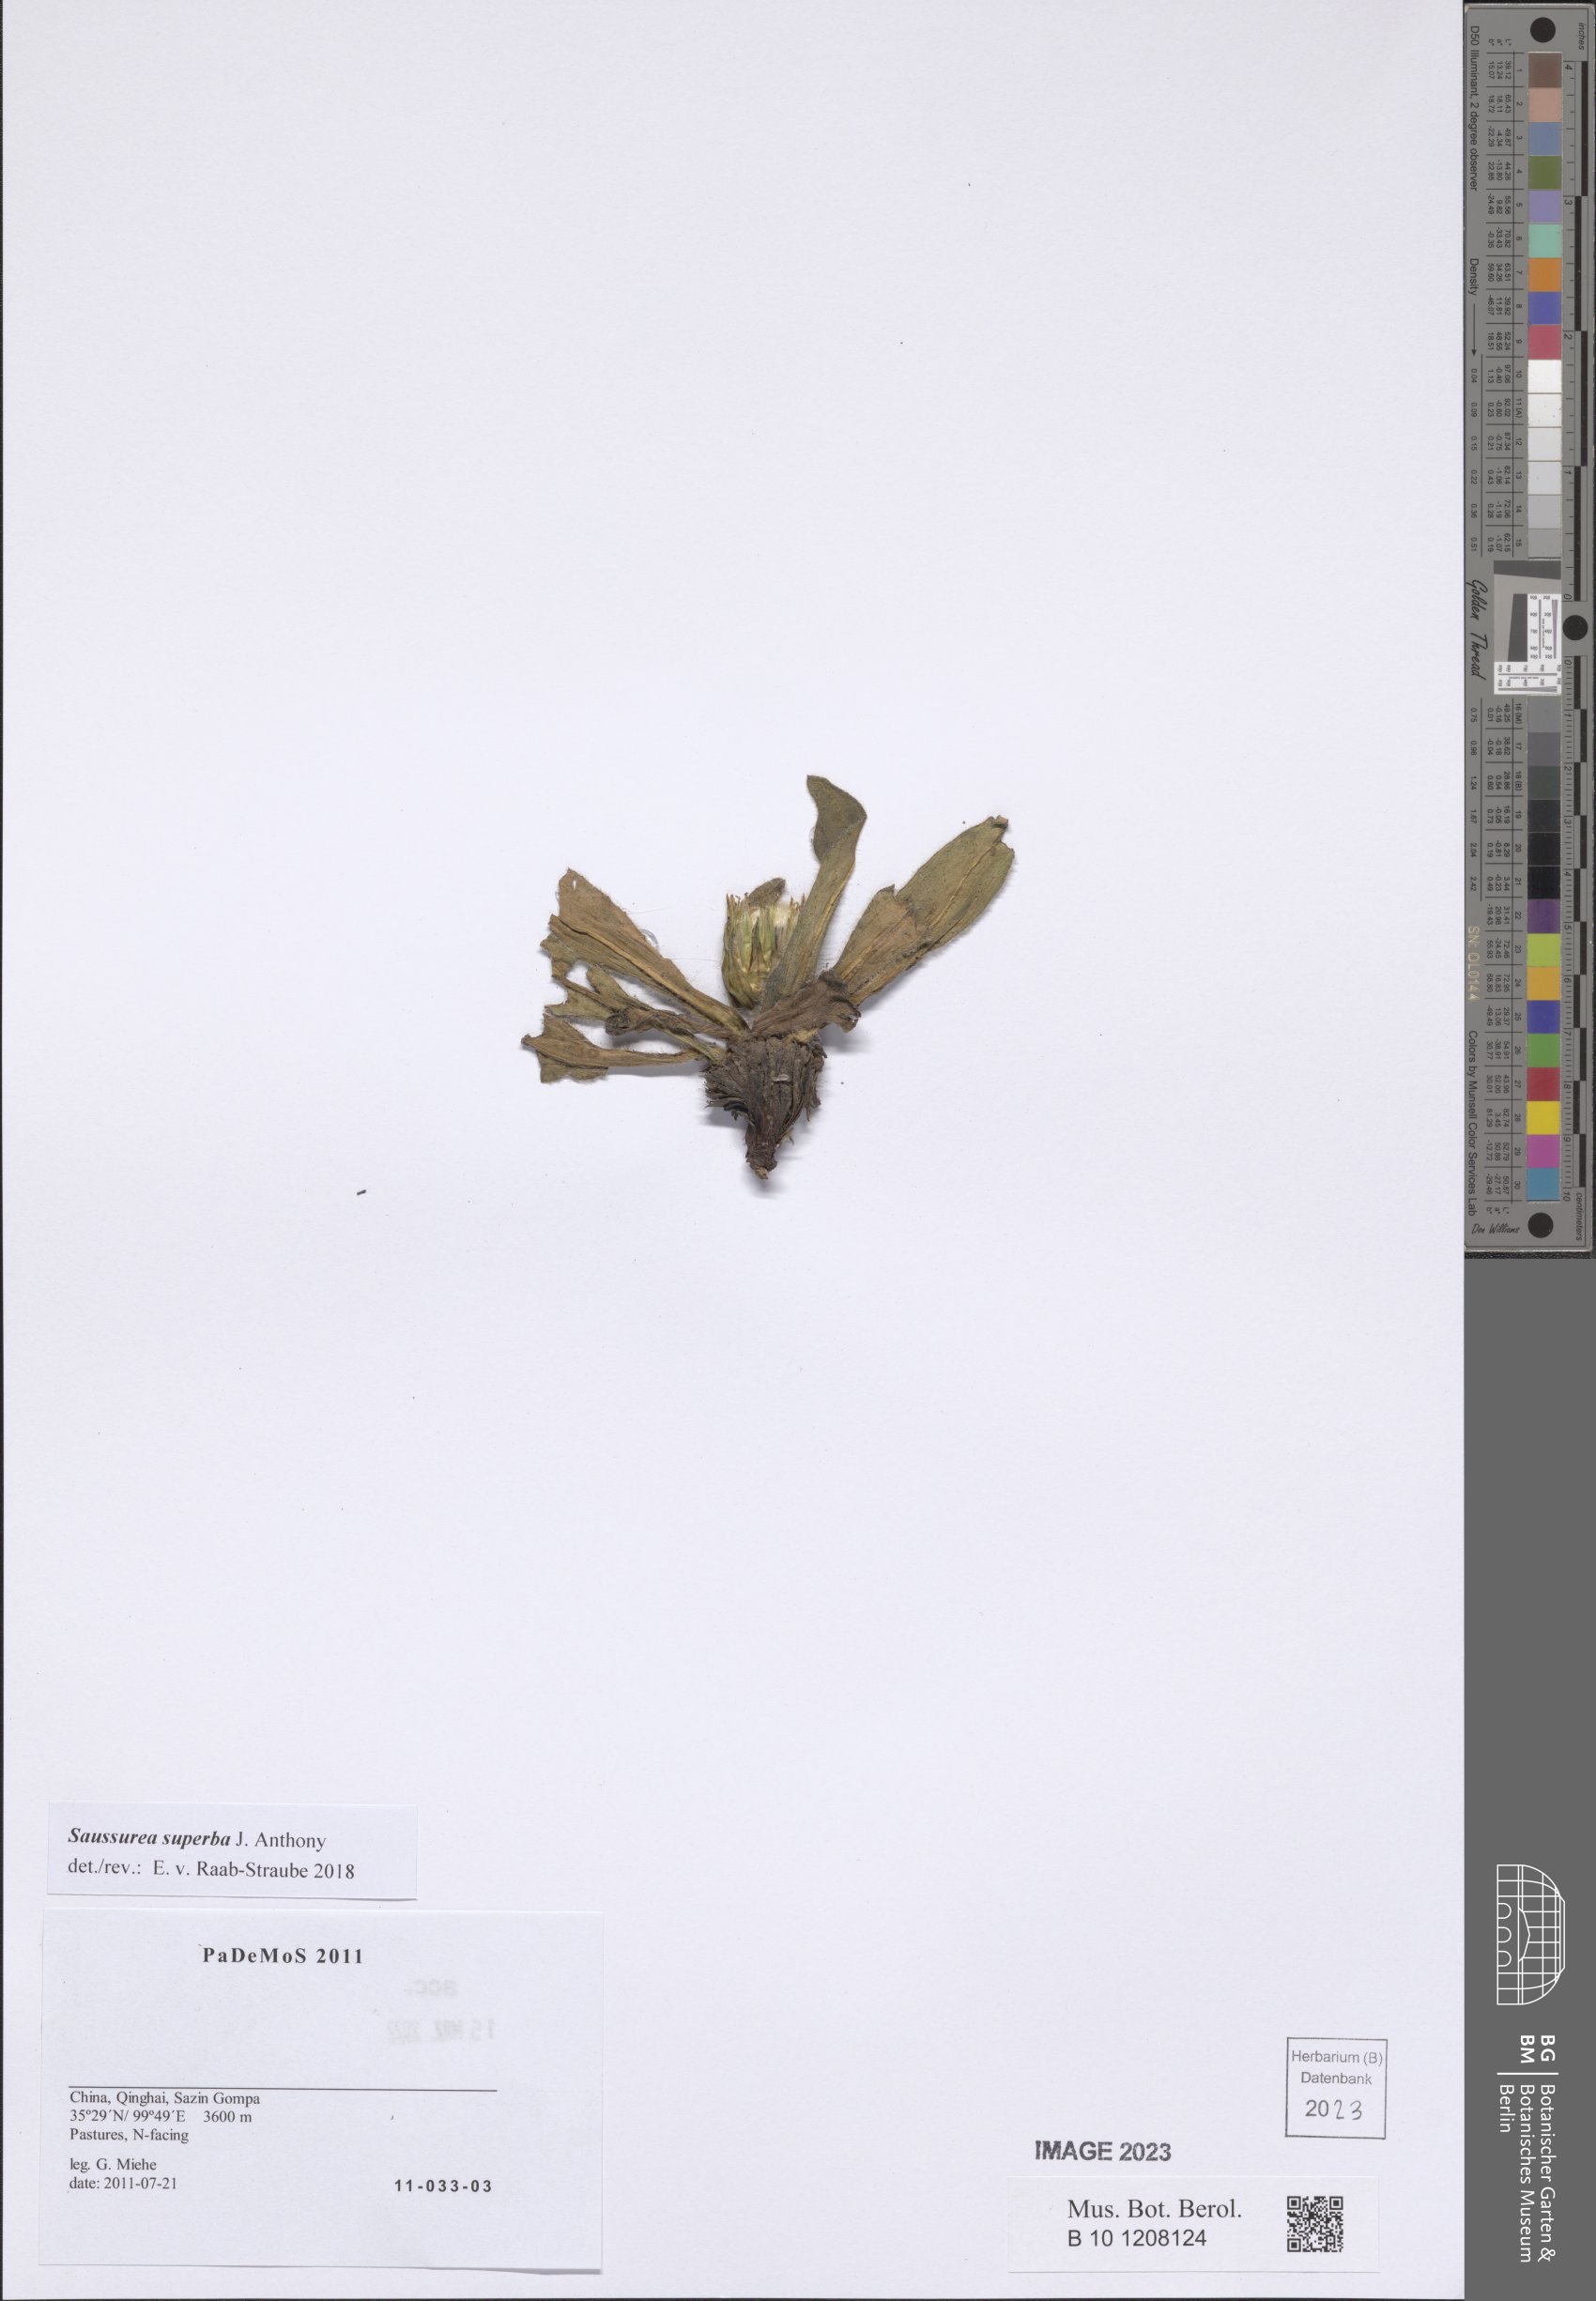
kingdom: Plantae
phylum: Tracheophyta
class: Magnoliopsida
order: Asterales
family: Asteraceae
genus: Saussurea
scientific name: Saussurea superba
